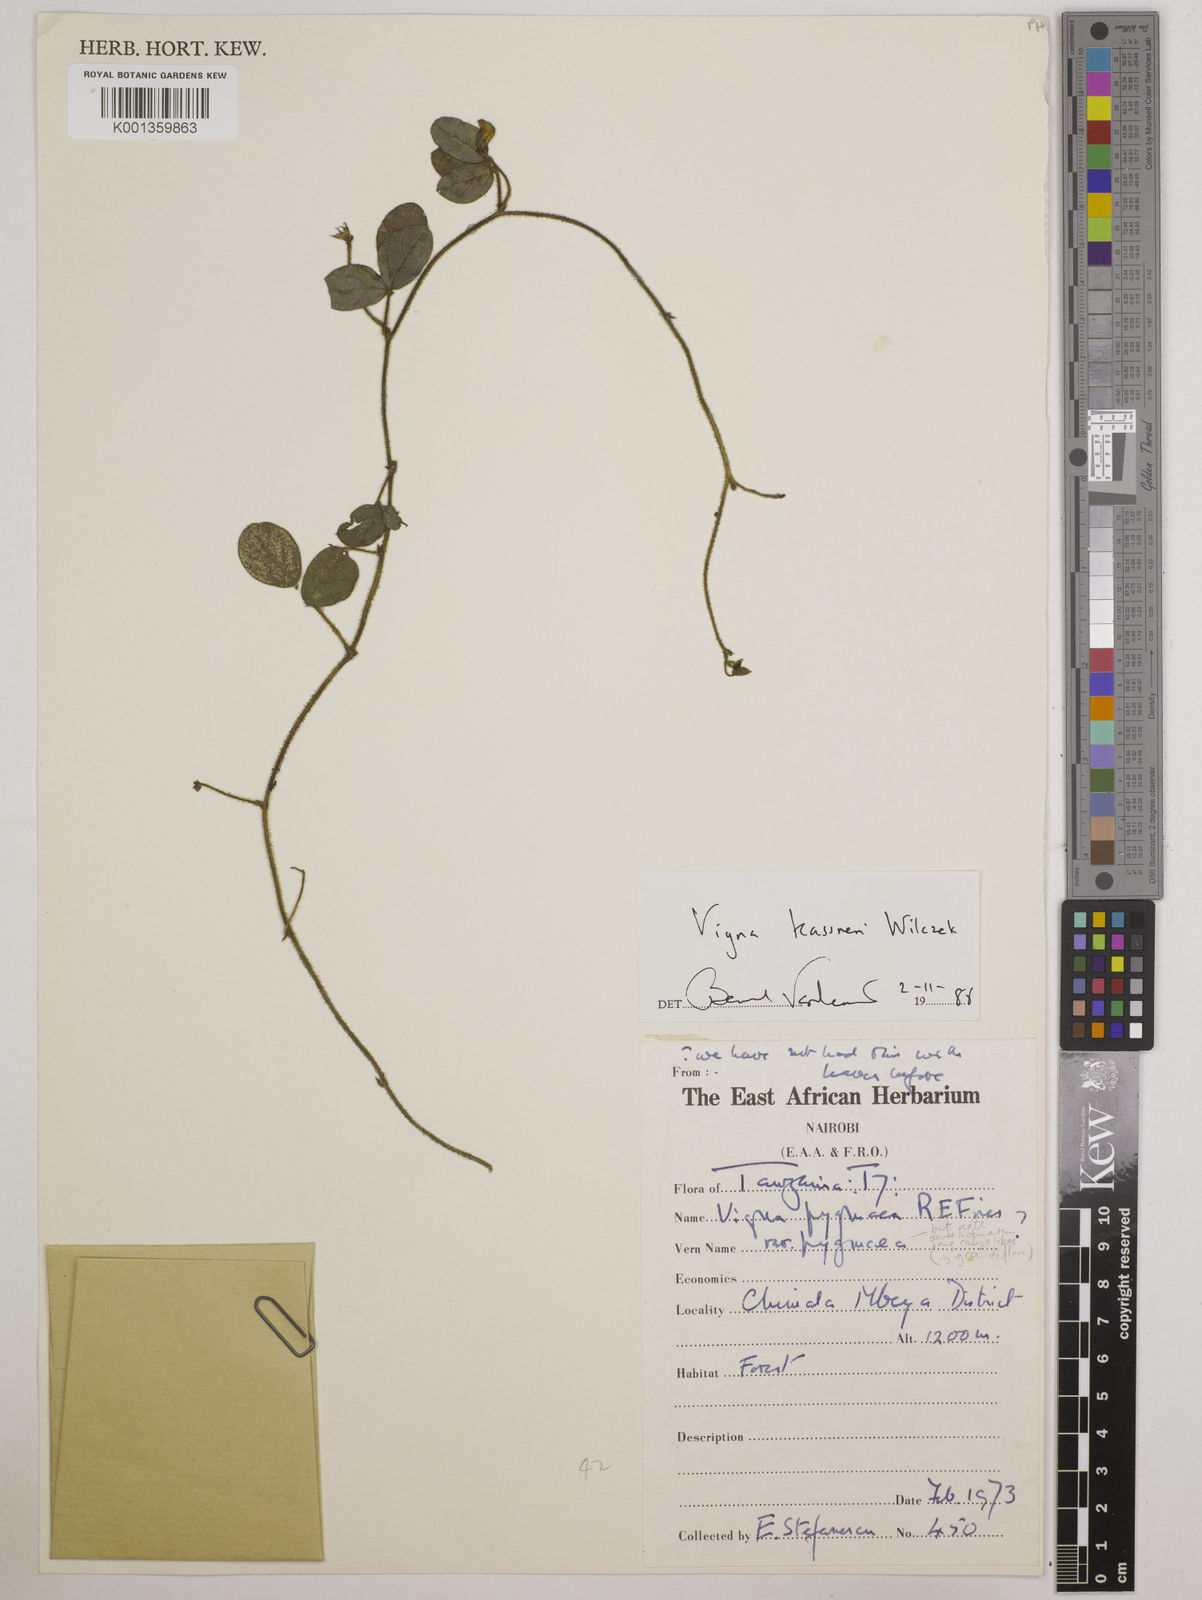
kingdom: Plantae
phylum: Tracheophyta
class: Magnoliopsida
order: Fabales
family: Fabaceae
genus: Vigna
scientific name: Vigna
